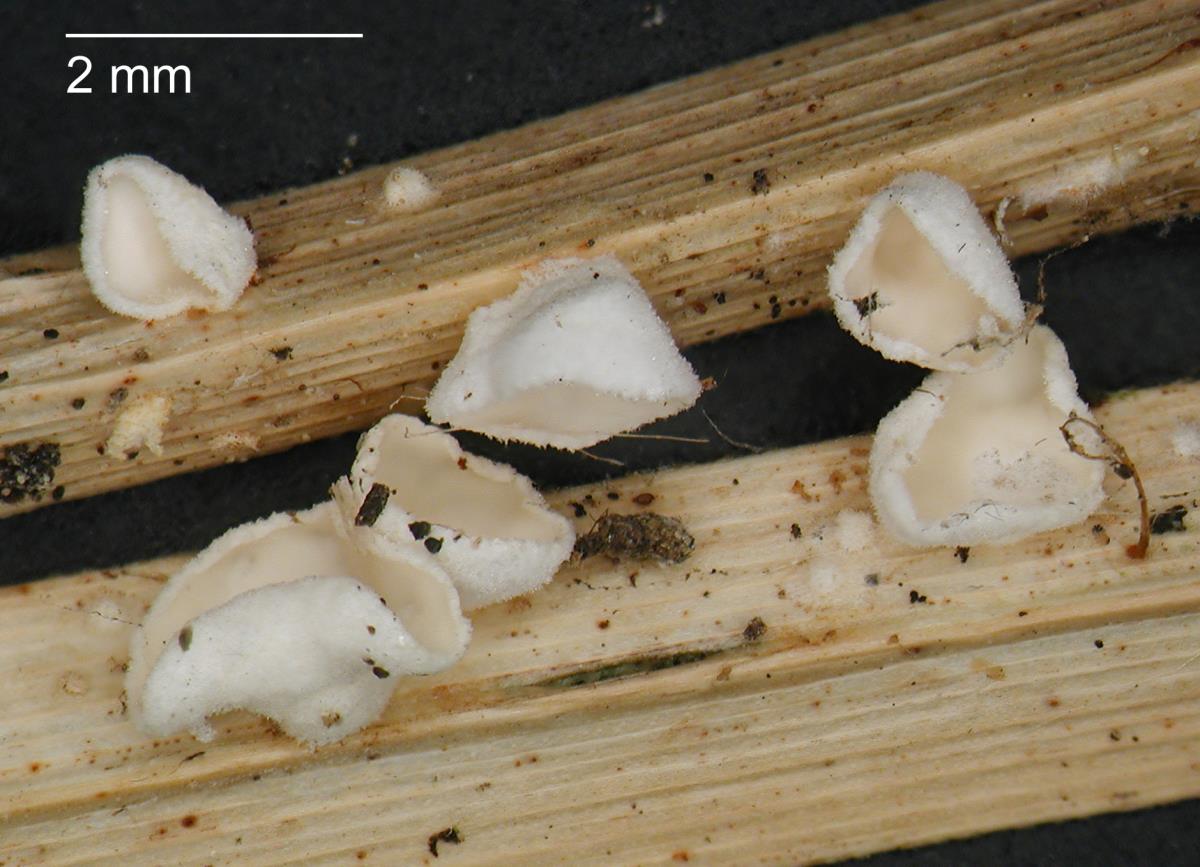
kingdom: Fungi
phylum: Basidiomycota
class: Agaricomycetes
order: Agaricales
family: Tricholomataceae
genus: Cellypha
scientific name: Cellypha goldbachii
